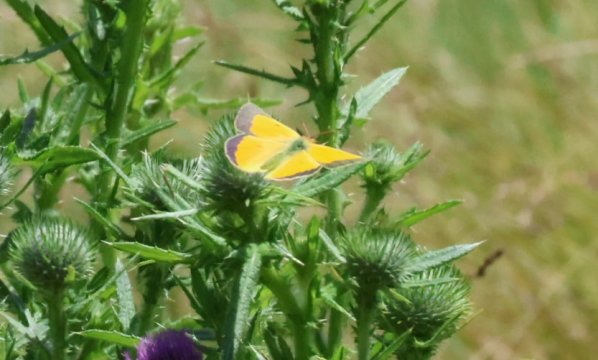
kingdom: Animalia
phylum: Arthropoda
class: Insecta
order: Lepidoptera
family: Pieridae
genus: Colias
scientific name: Colias philodice
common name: Clouded Sulphur
